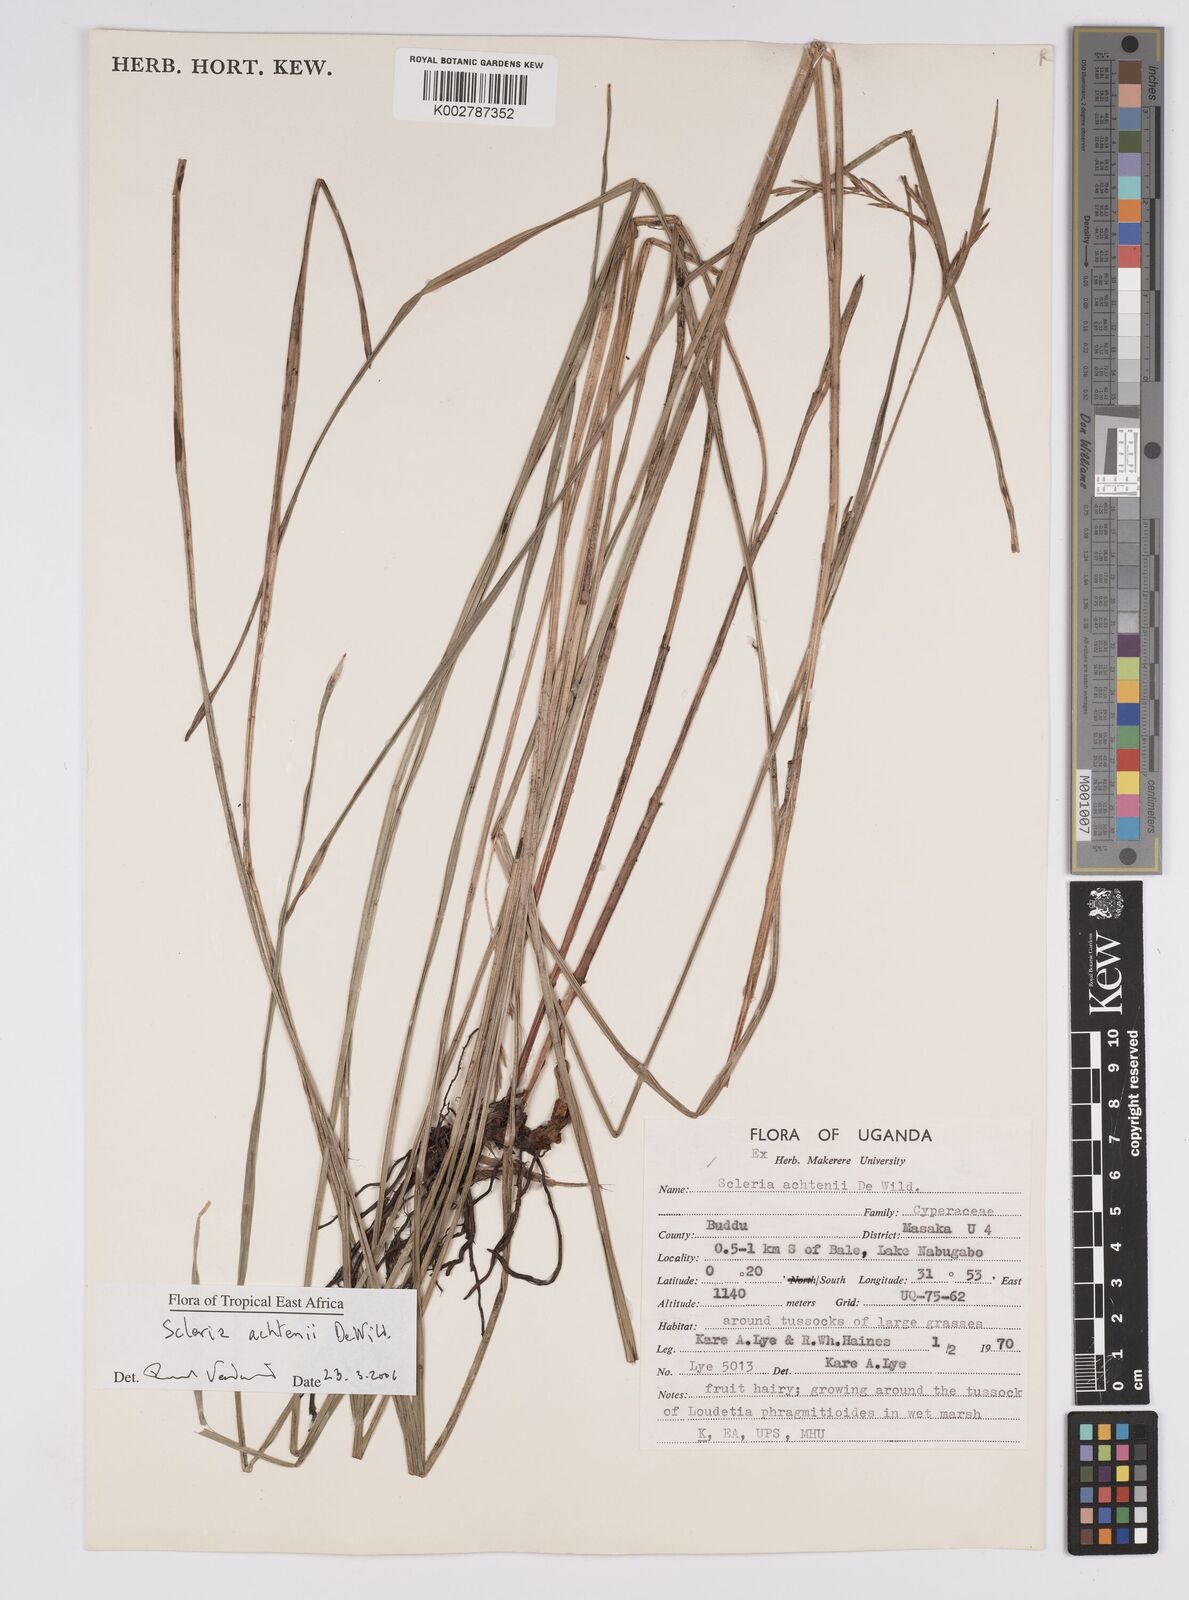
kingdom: Plantae
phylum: Tracheophyta
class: Liliopsida
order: Poales
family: Cyperaceae
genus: Scleria
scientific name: Scleria achtenii
